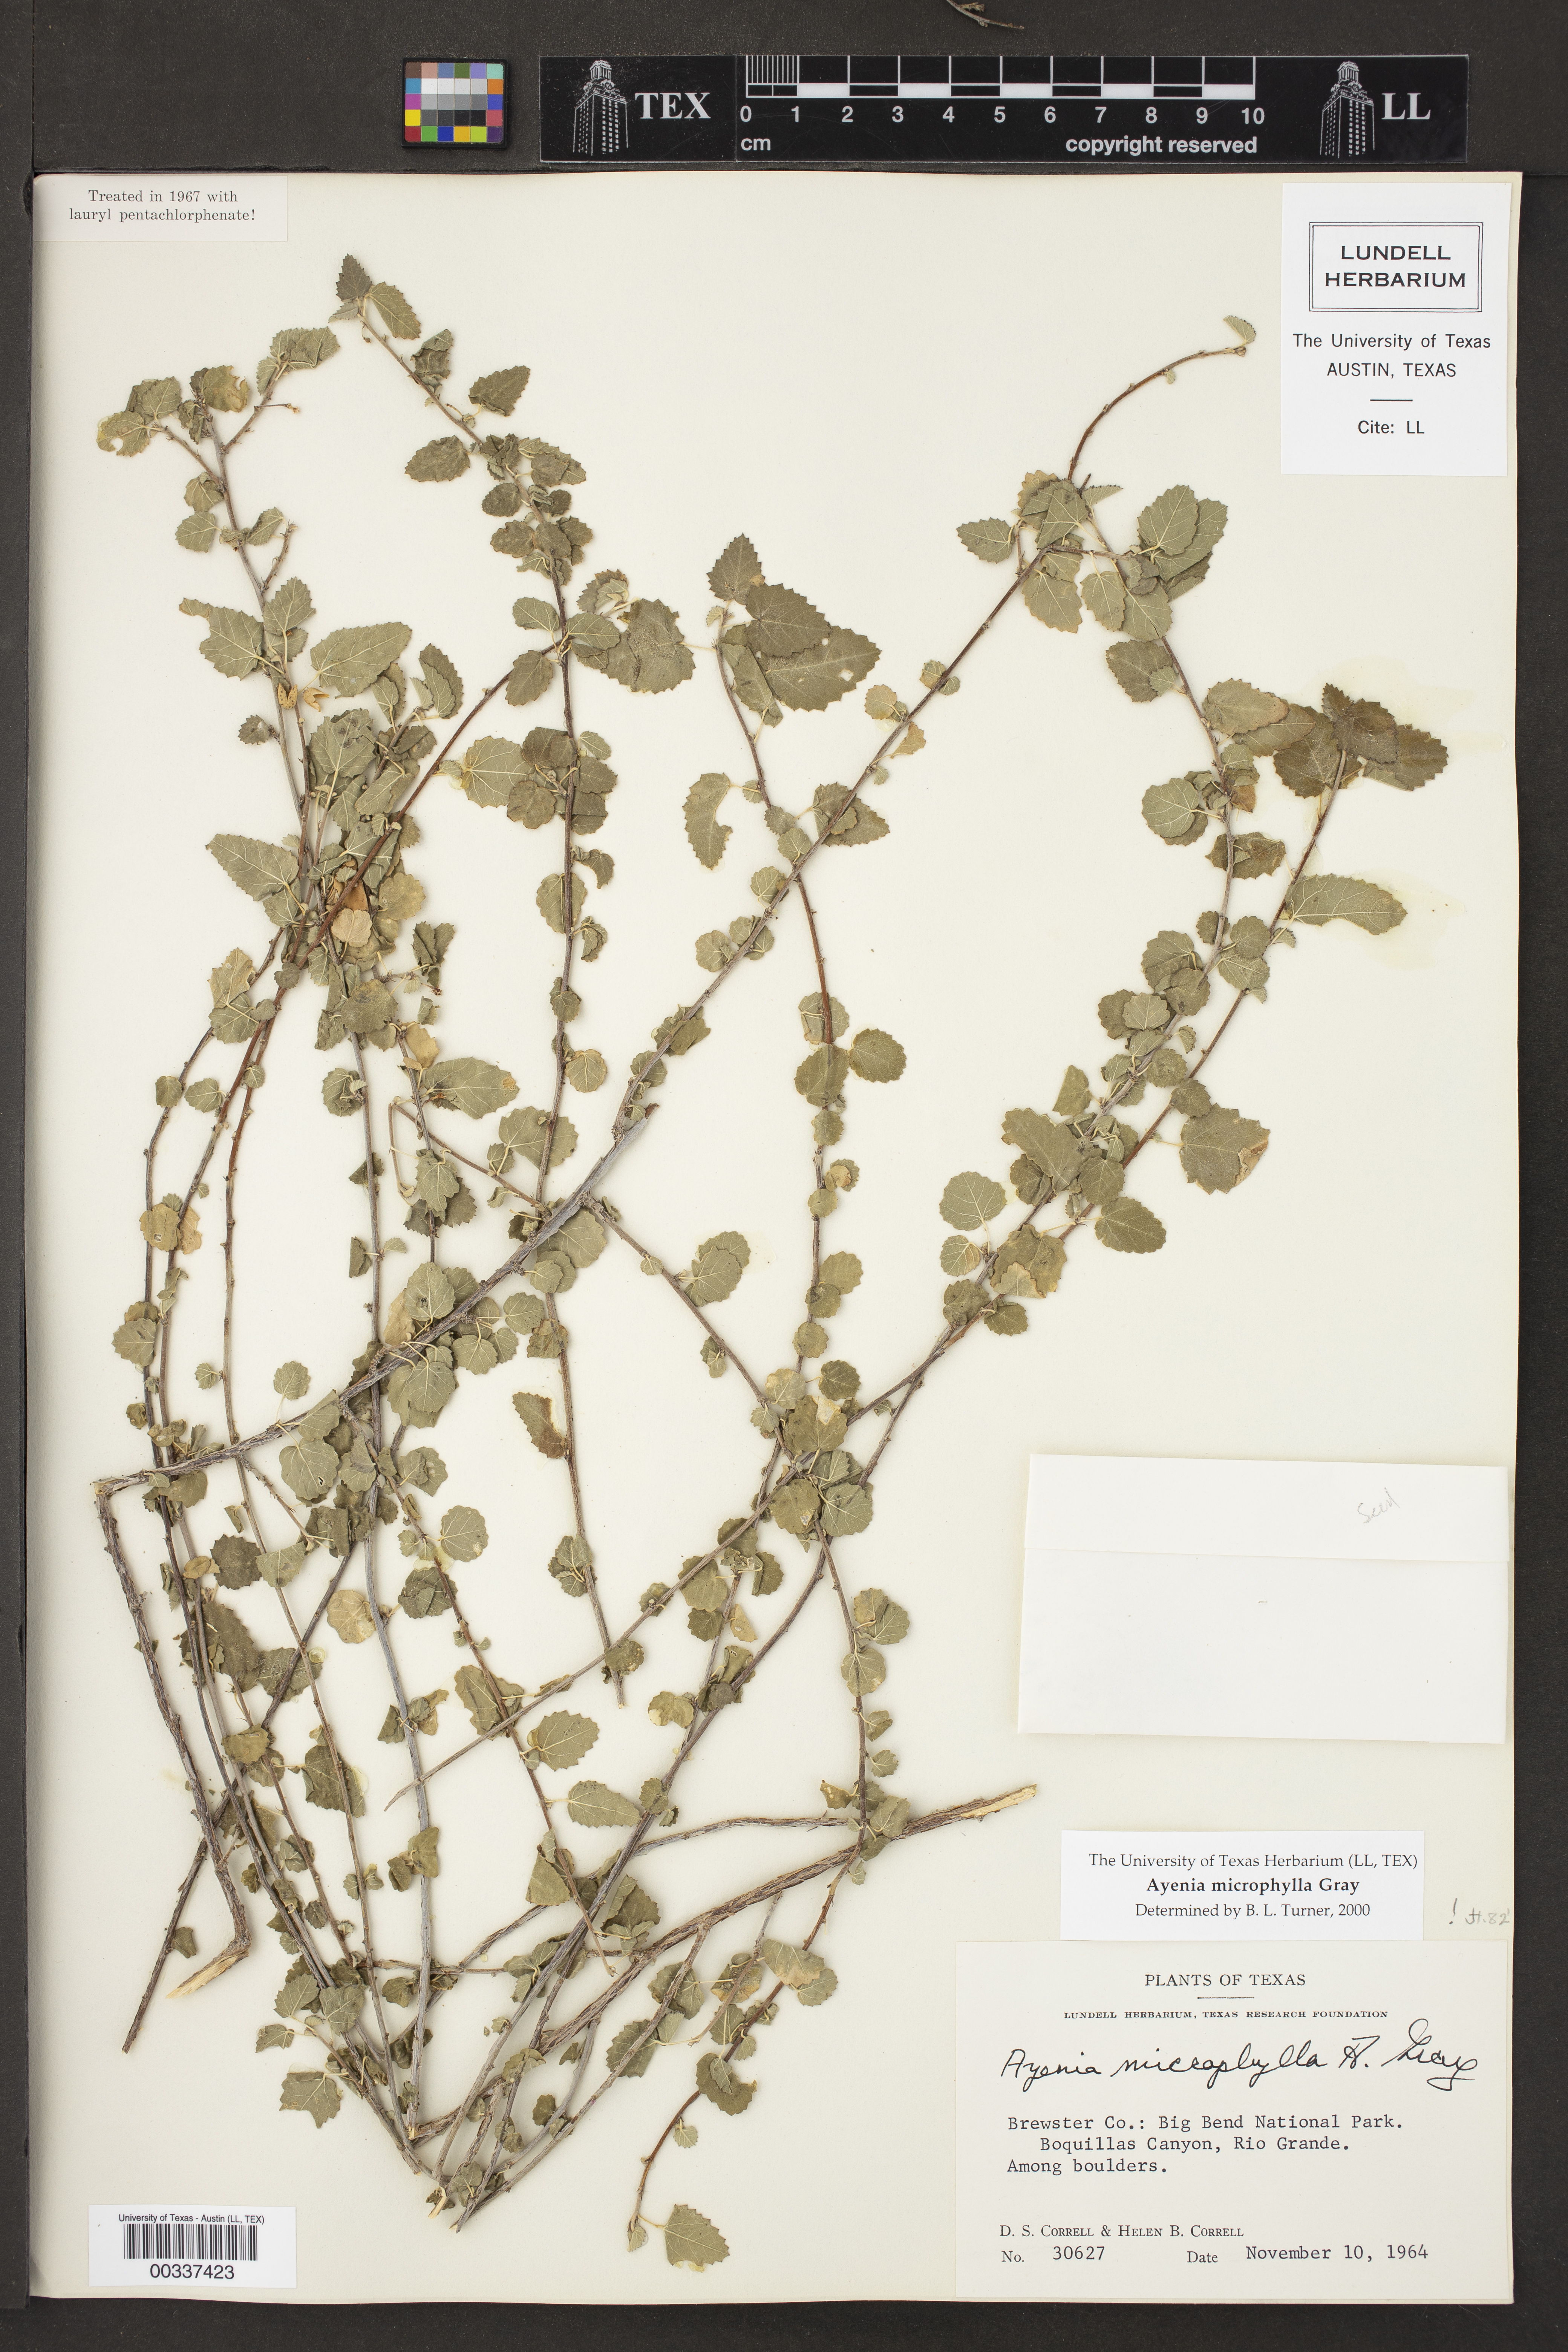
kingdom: Plantae
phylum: Tracheophyta
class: Magnoliopsida
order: Malvales
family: Malvaceae
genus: Ayenia
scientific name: Ayenia microphylla
